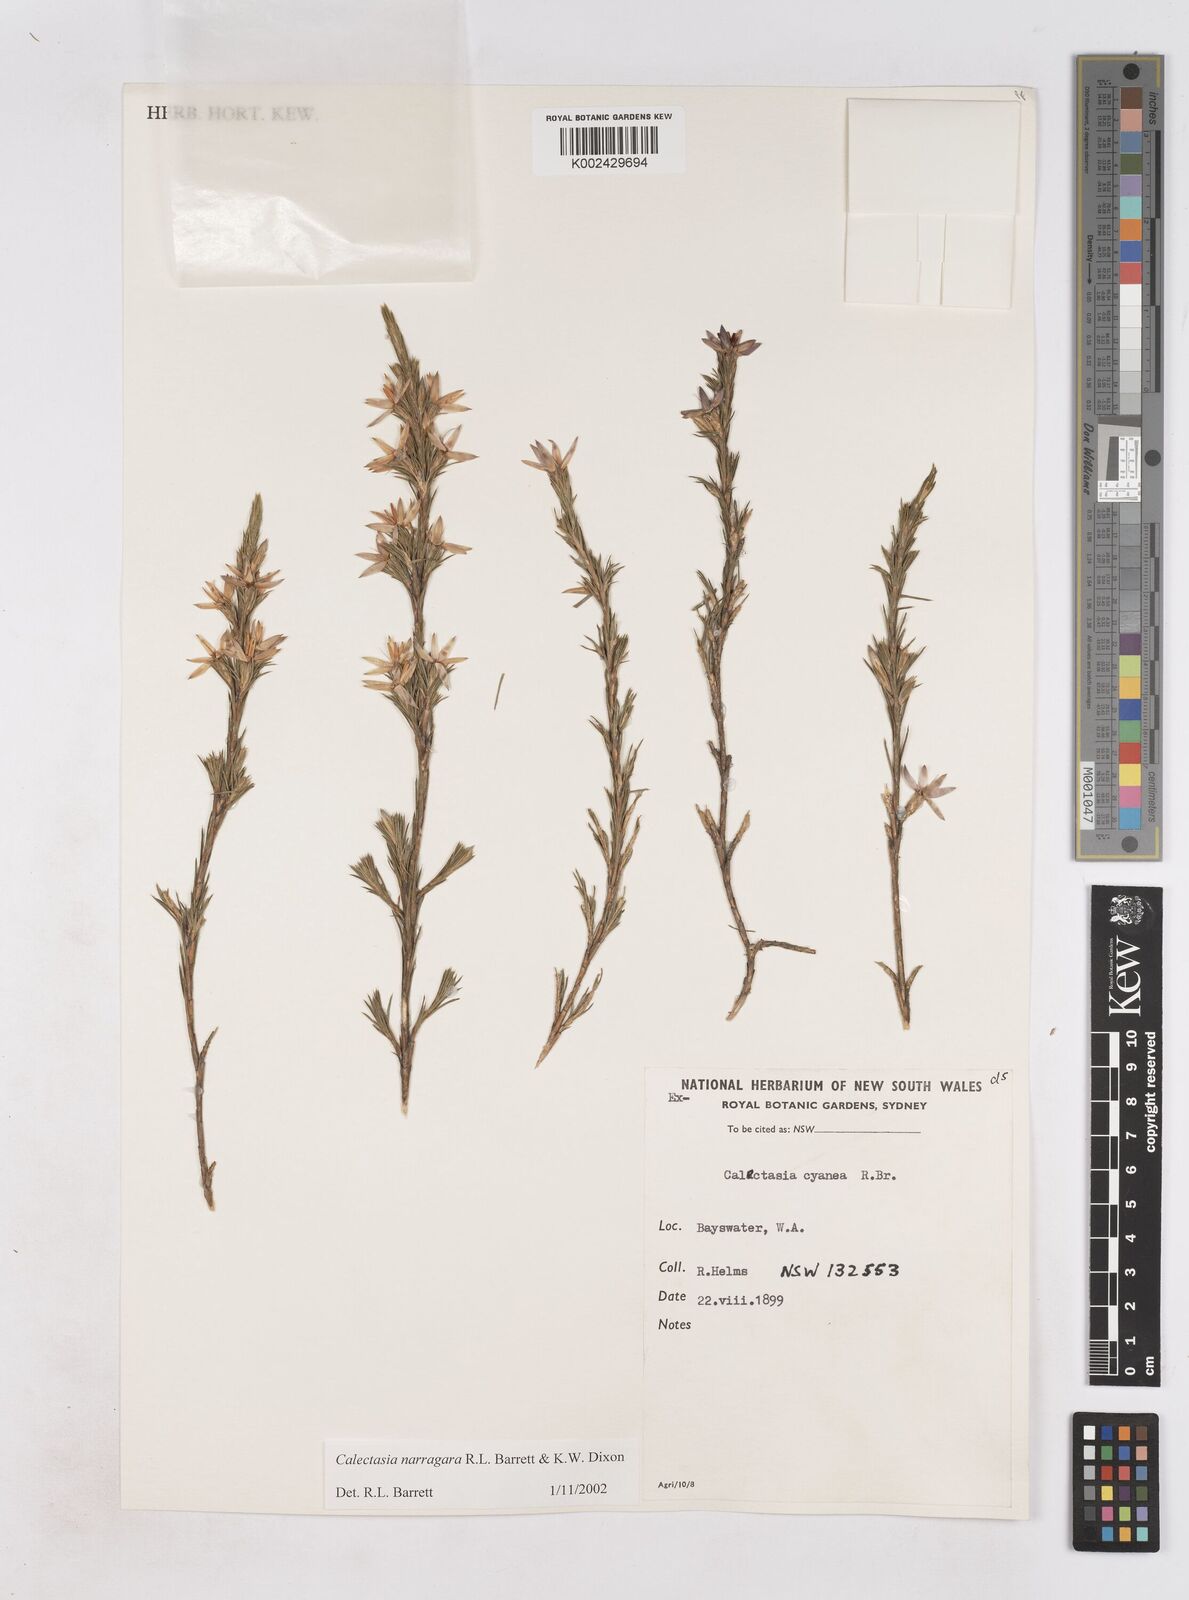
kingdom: Plantae
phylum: Tracheophyta
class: Liliopsida
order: Arecales
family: Dasypogonaceae
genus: Calectasia
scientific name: Calectasia narragara
